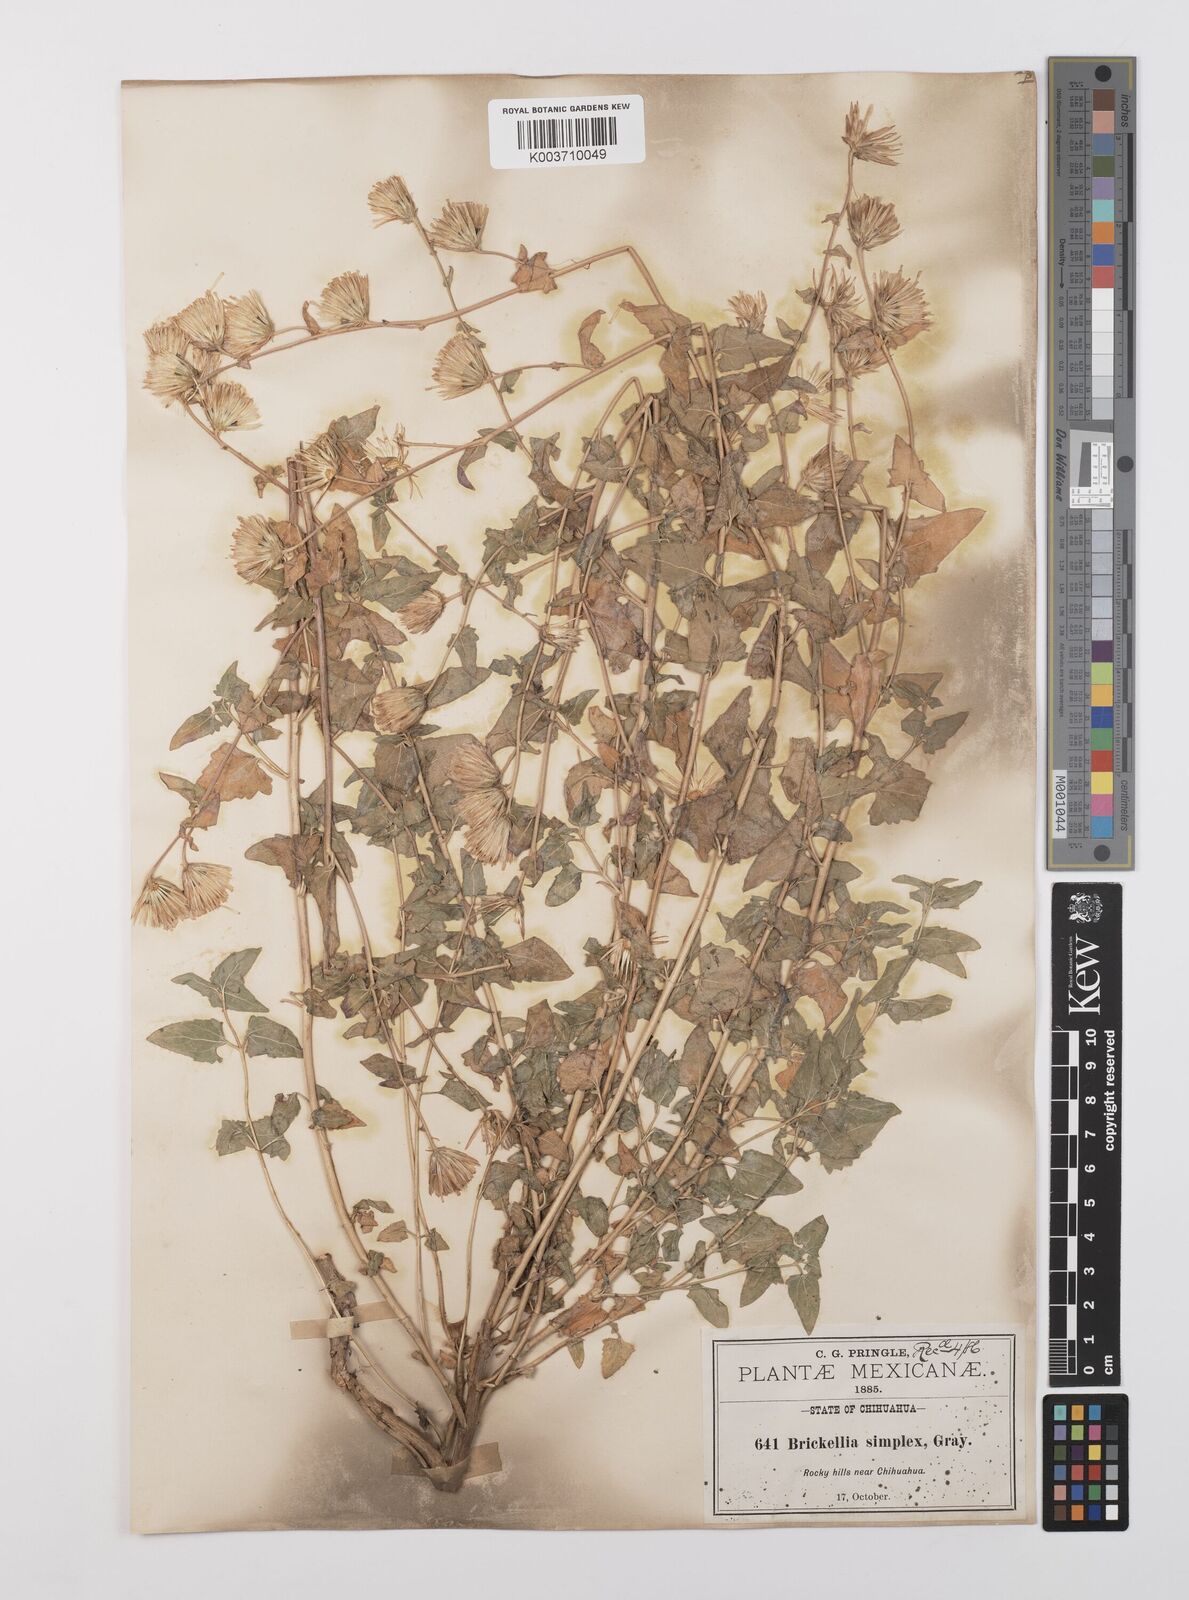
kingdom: Plantae
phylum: Tracheophyta
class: Magnoliopsida
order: Asterales
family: Asteraceae
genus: Brickellia
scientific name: Brickellia simplex
